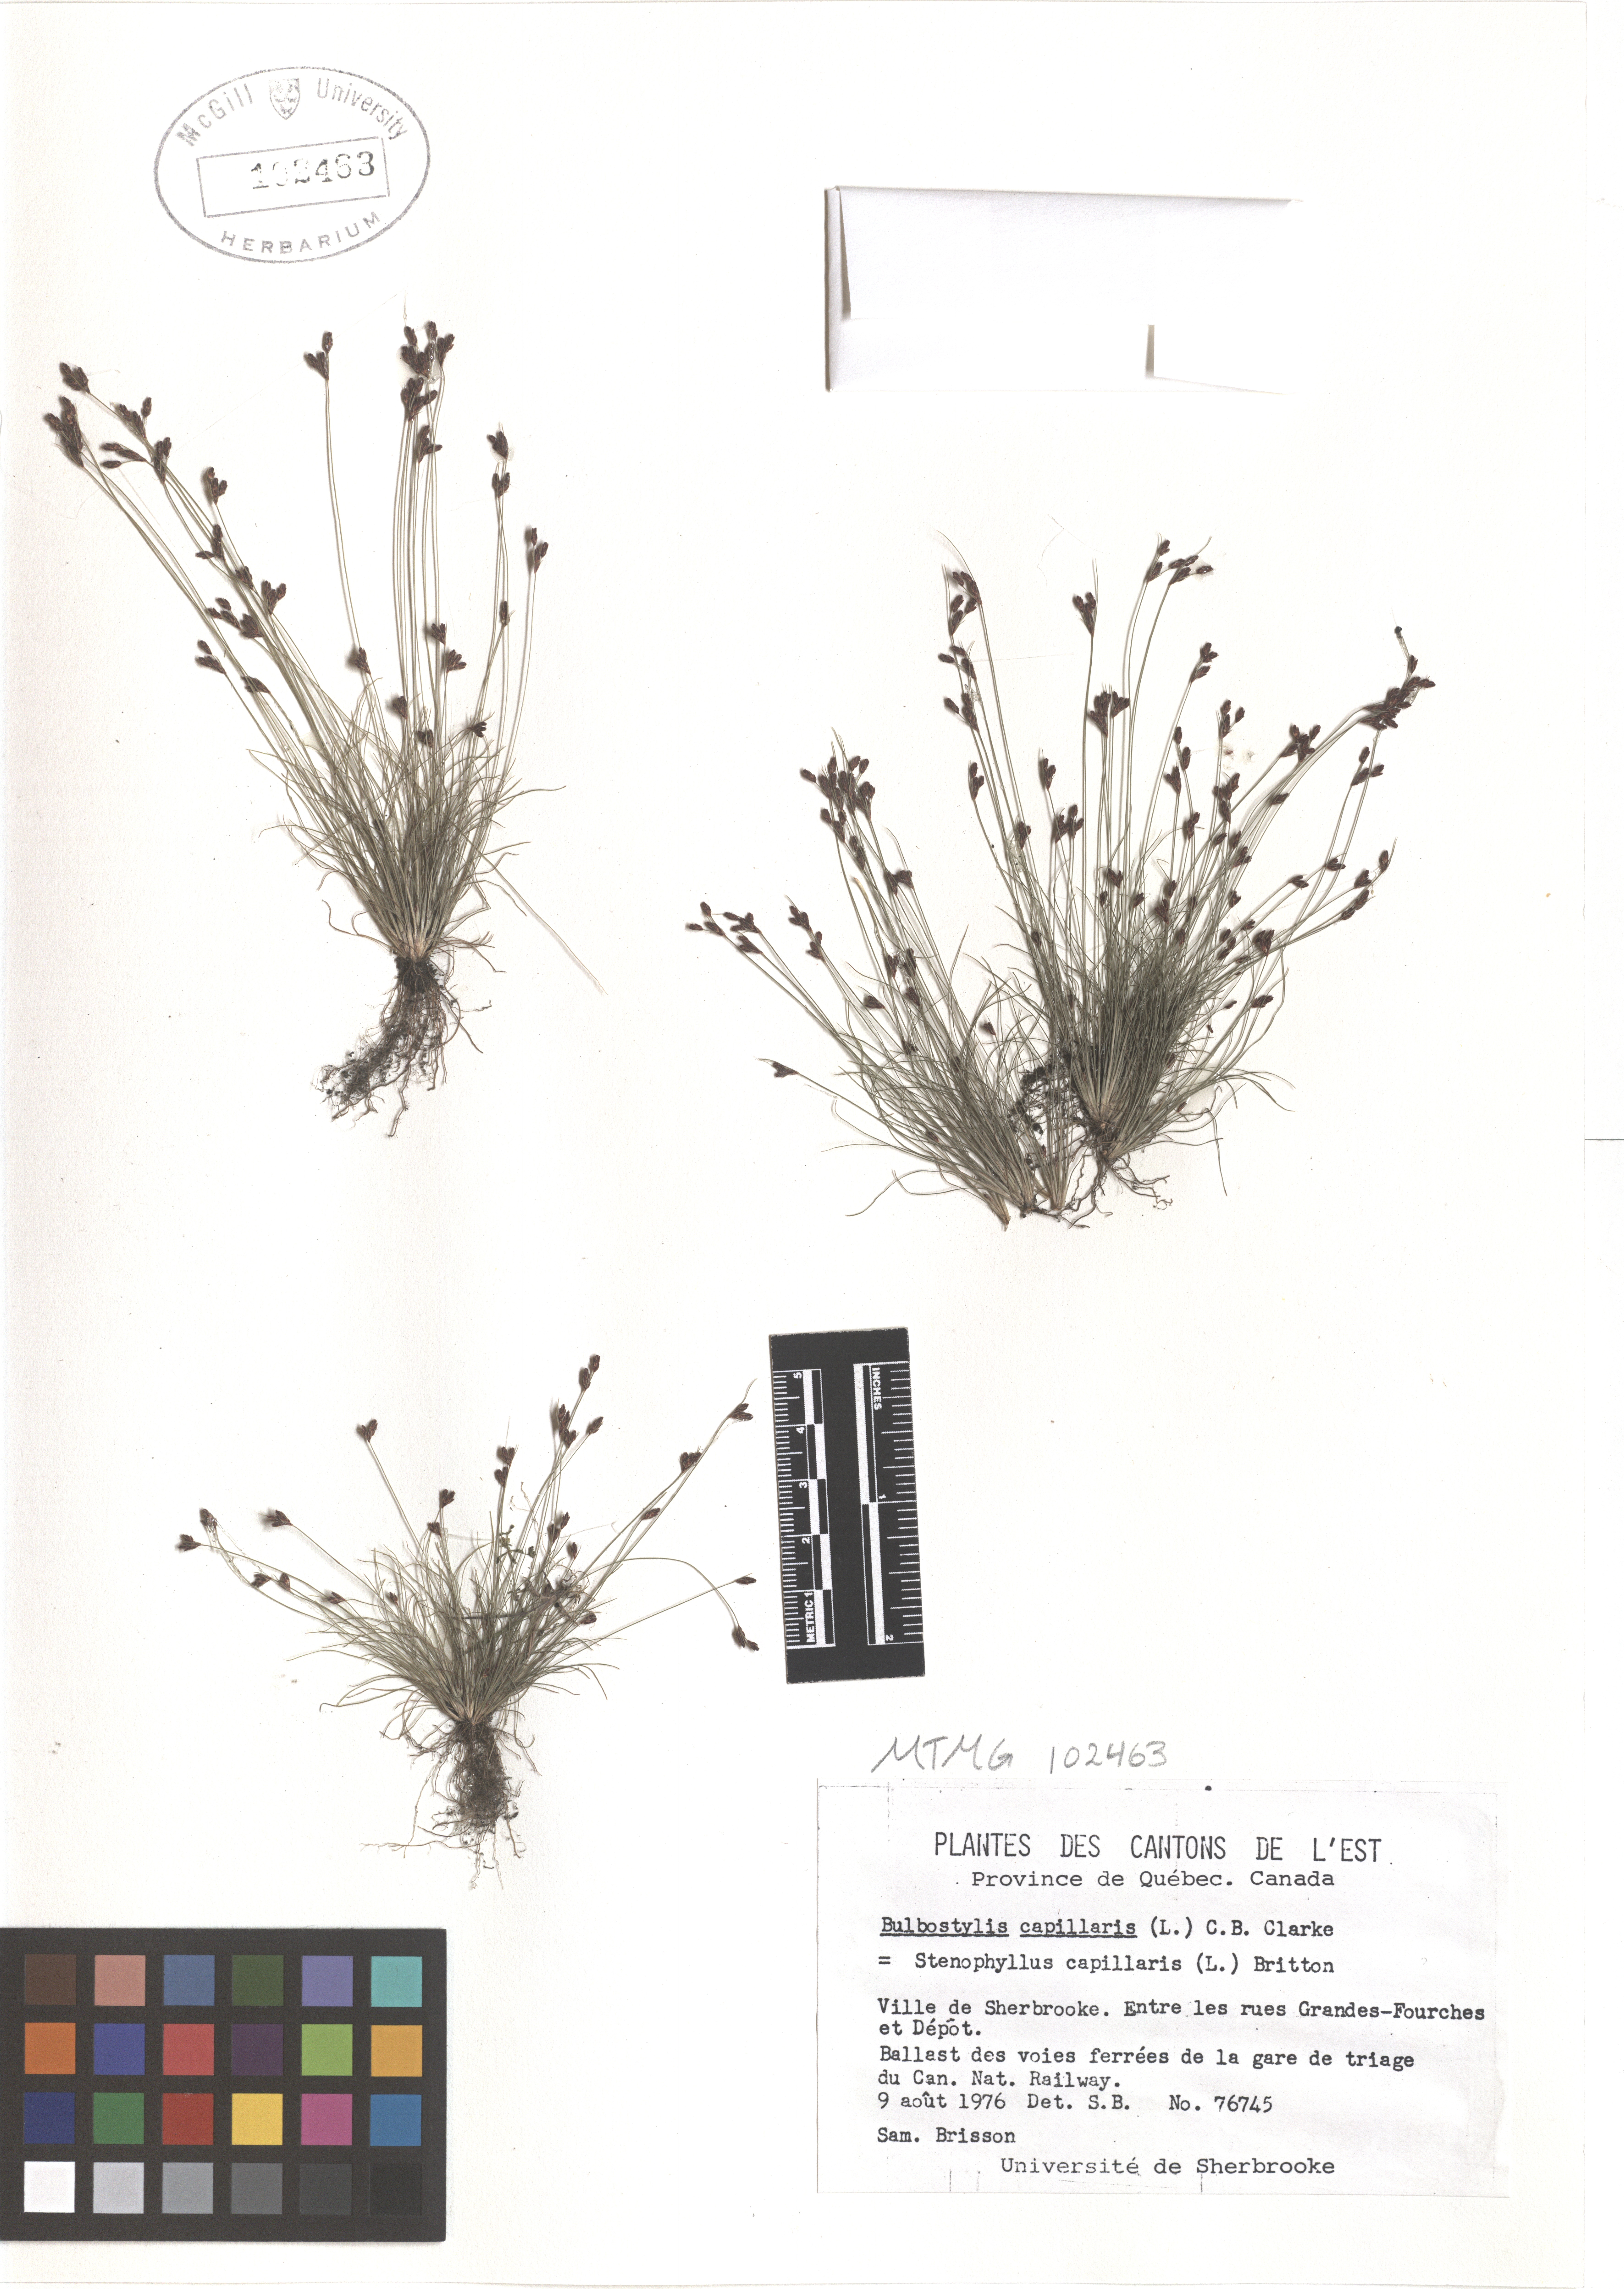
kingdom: Plantae
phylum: Tracheophyta
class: Liliopsida
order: Poales
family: Cyperaceae
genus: Bulbostylis
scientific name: Bulbostylis capillaris
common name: Densetuft hairsedge
